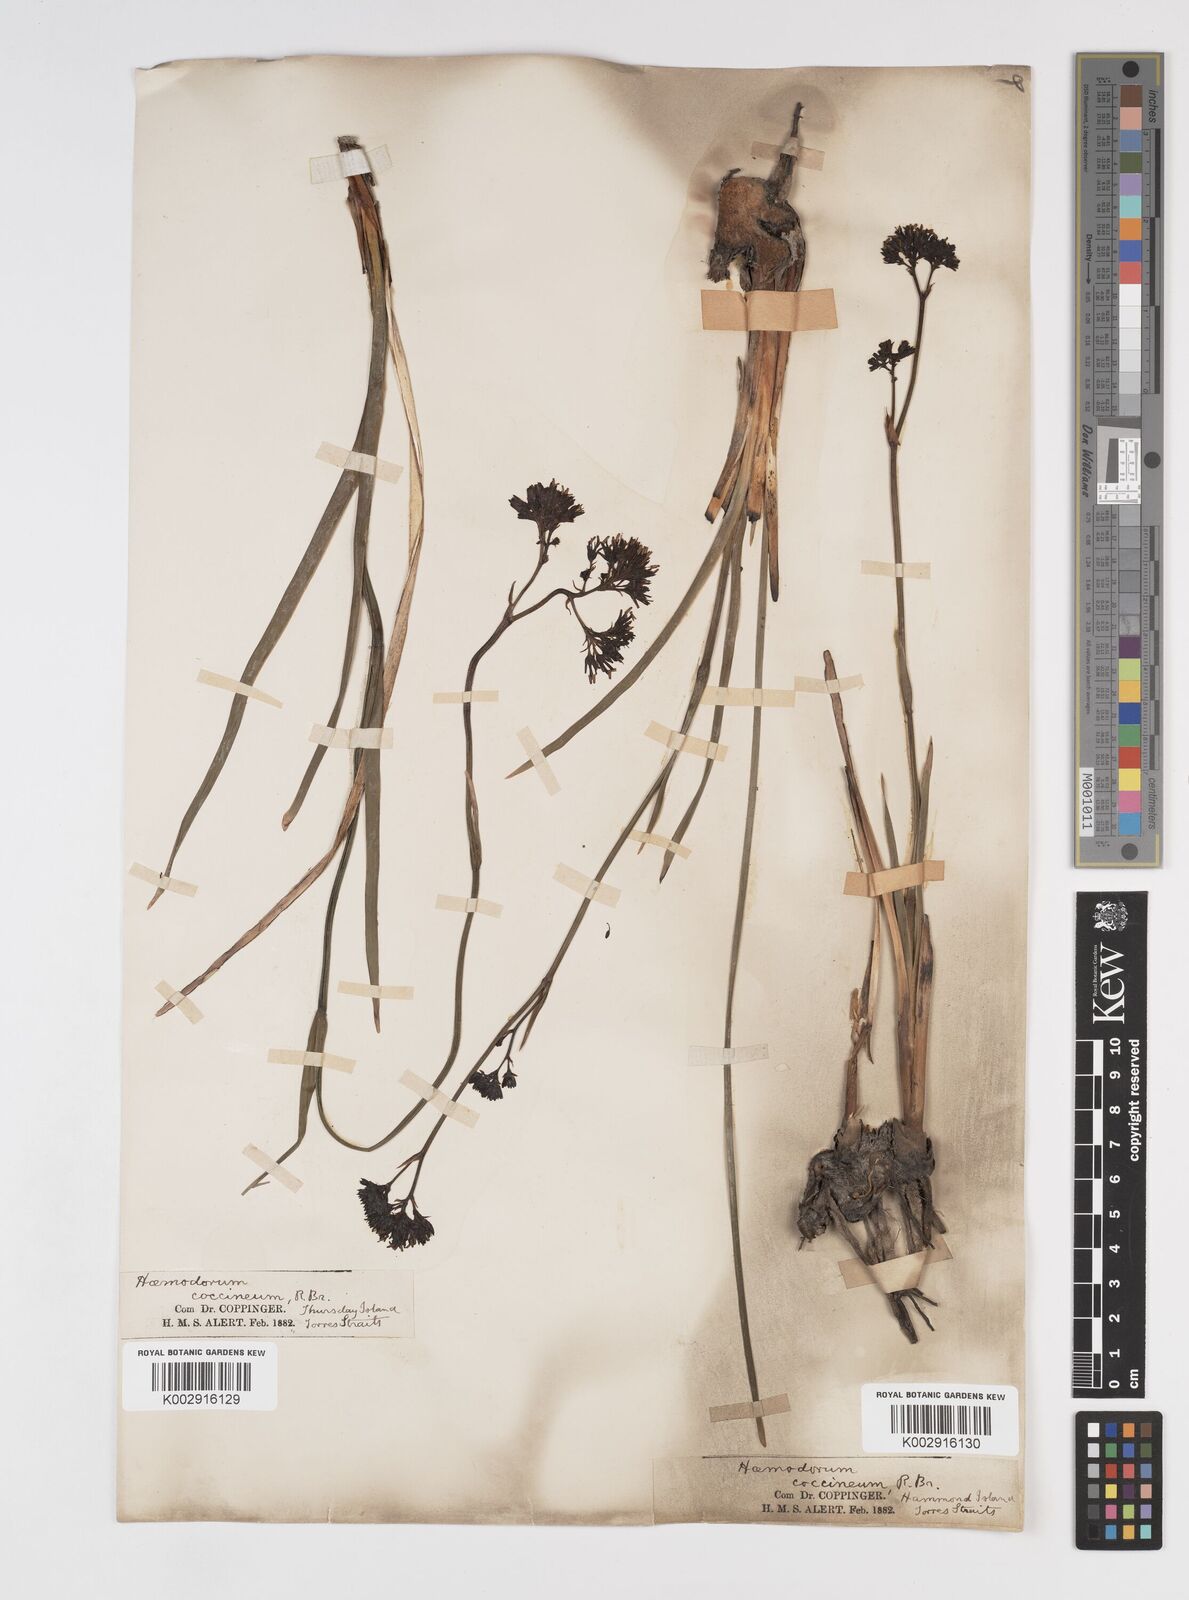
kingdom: Plantae
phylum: Tracheophyta
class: Liliopsida
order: Commelinales
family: Haemodoraceae
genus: Haemodorum
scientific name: Haemodorum coccineum
